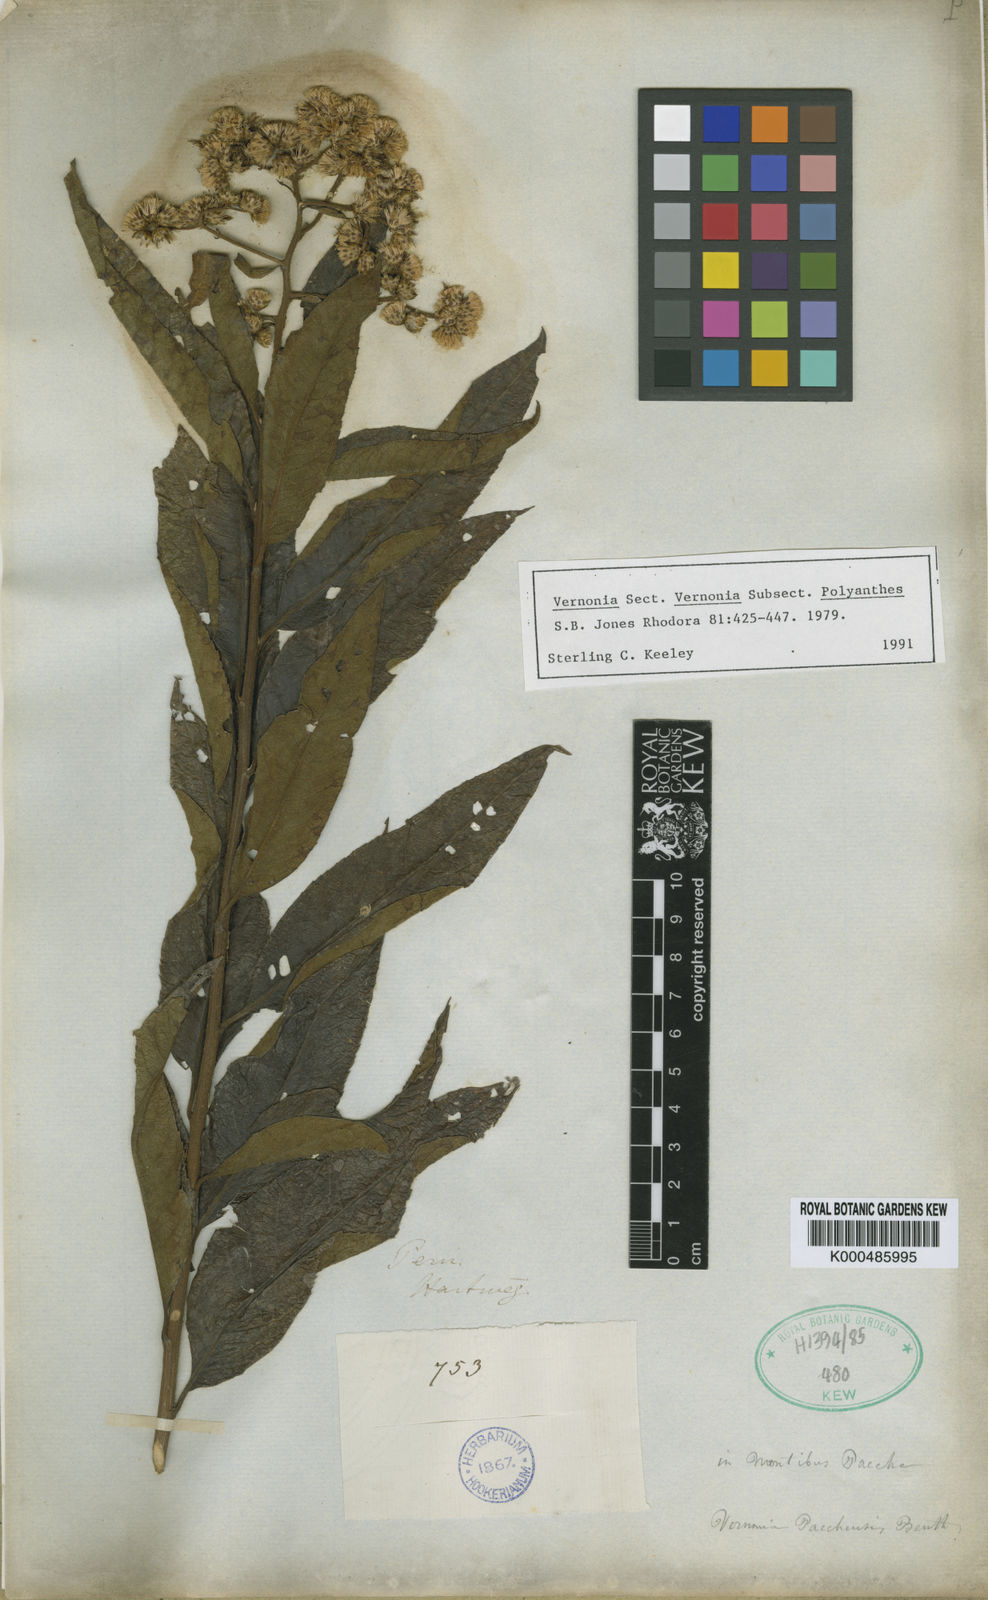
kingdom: Plantae
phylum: Tracheophyta
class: Magnoliopsida
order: Asterales
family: Asteraceae
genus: Vernonanthura
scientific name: Vernonanthura patens
